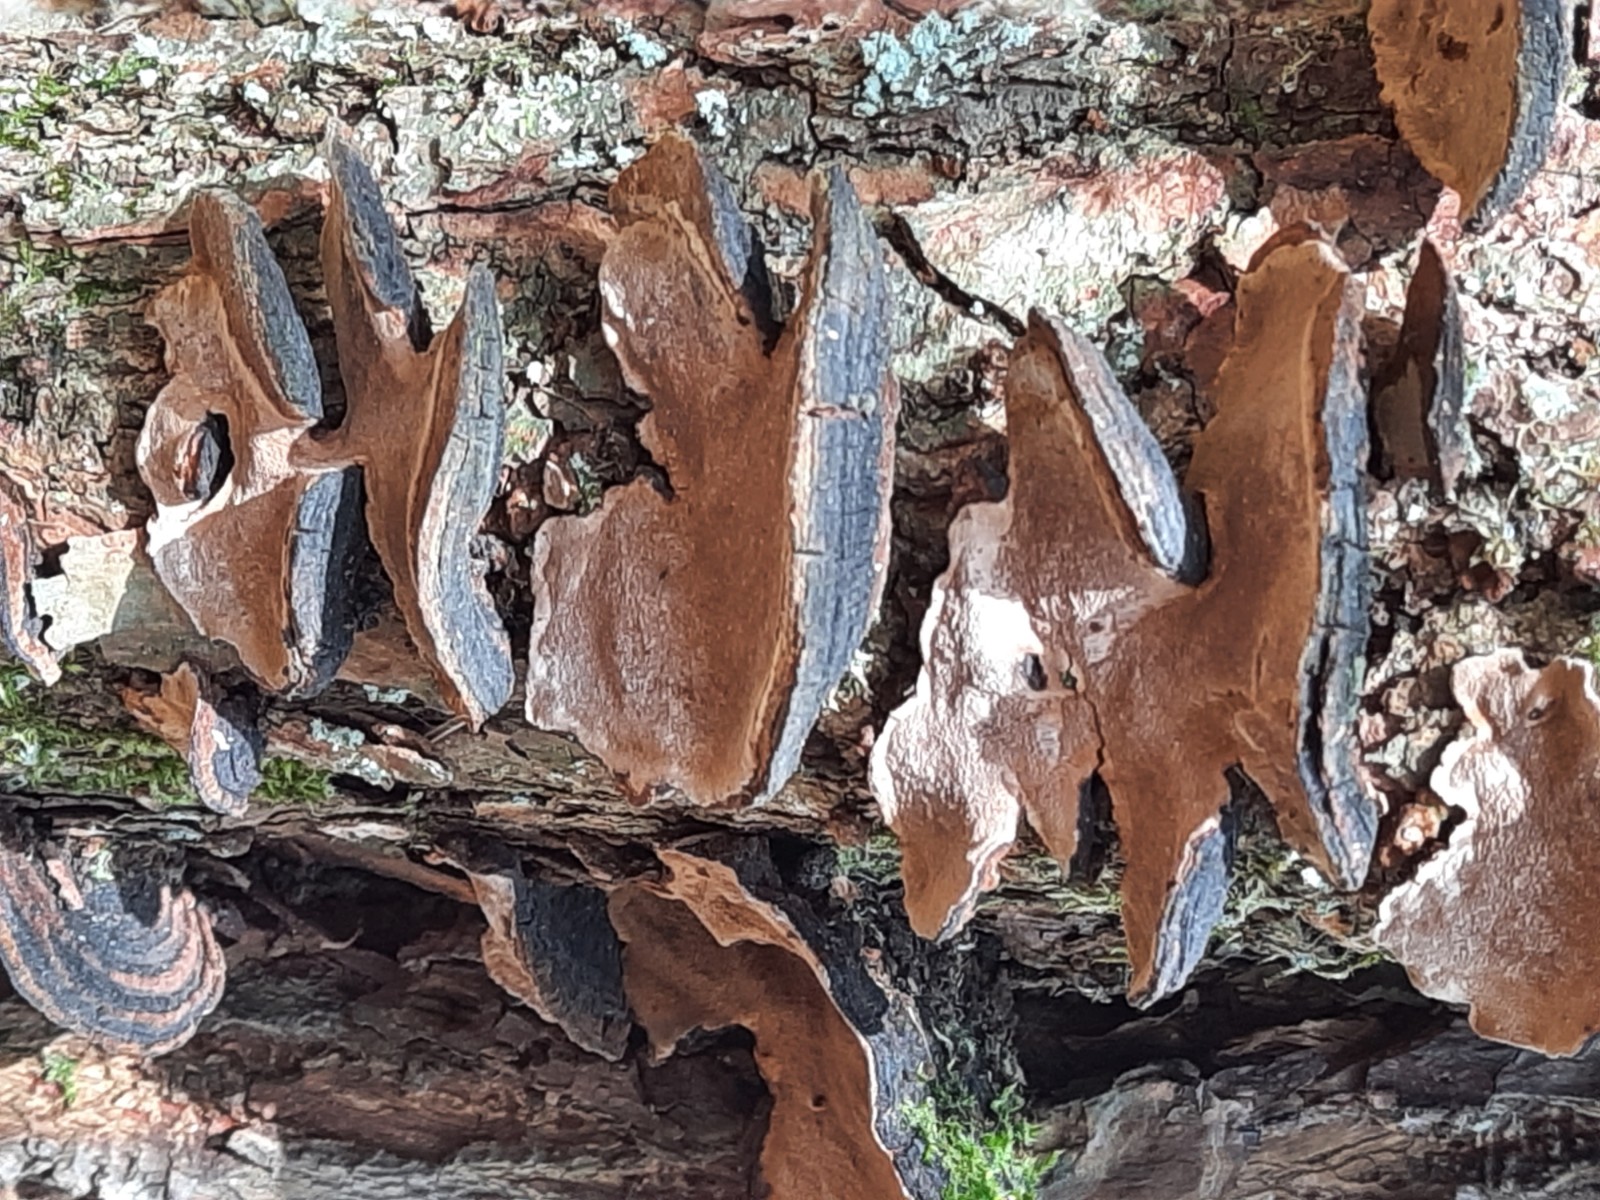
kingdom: Fungi
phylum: Basidiomycota
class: Agaricomycetes
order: Hymenochaetales
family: Hymenochaetaceae
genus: Phellinopsis
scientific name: Phellinopsis conchata
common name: pile-ildporesvamp
